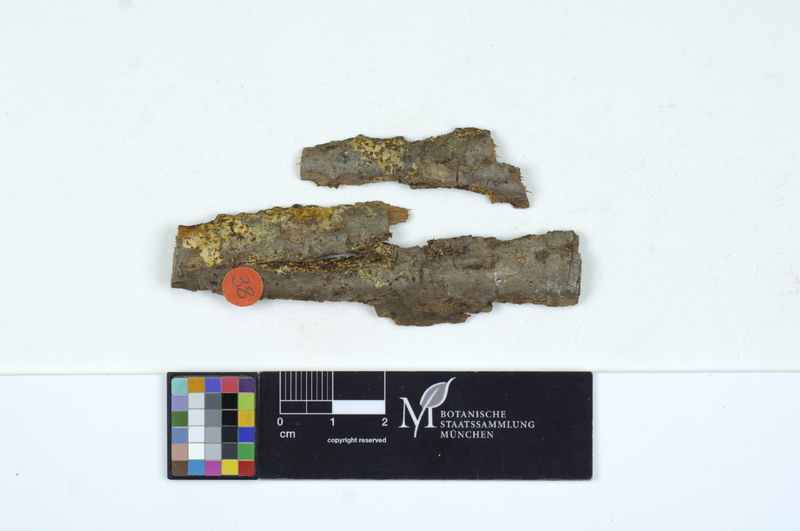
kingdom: Fungi
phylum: Basidiomycota
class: Agaricomycetes
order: Sebacinales
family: Sebacinaceae
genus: Sebacina
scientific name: Sebacina incrustans
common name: Enveloping crust
